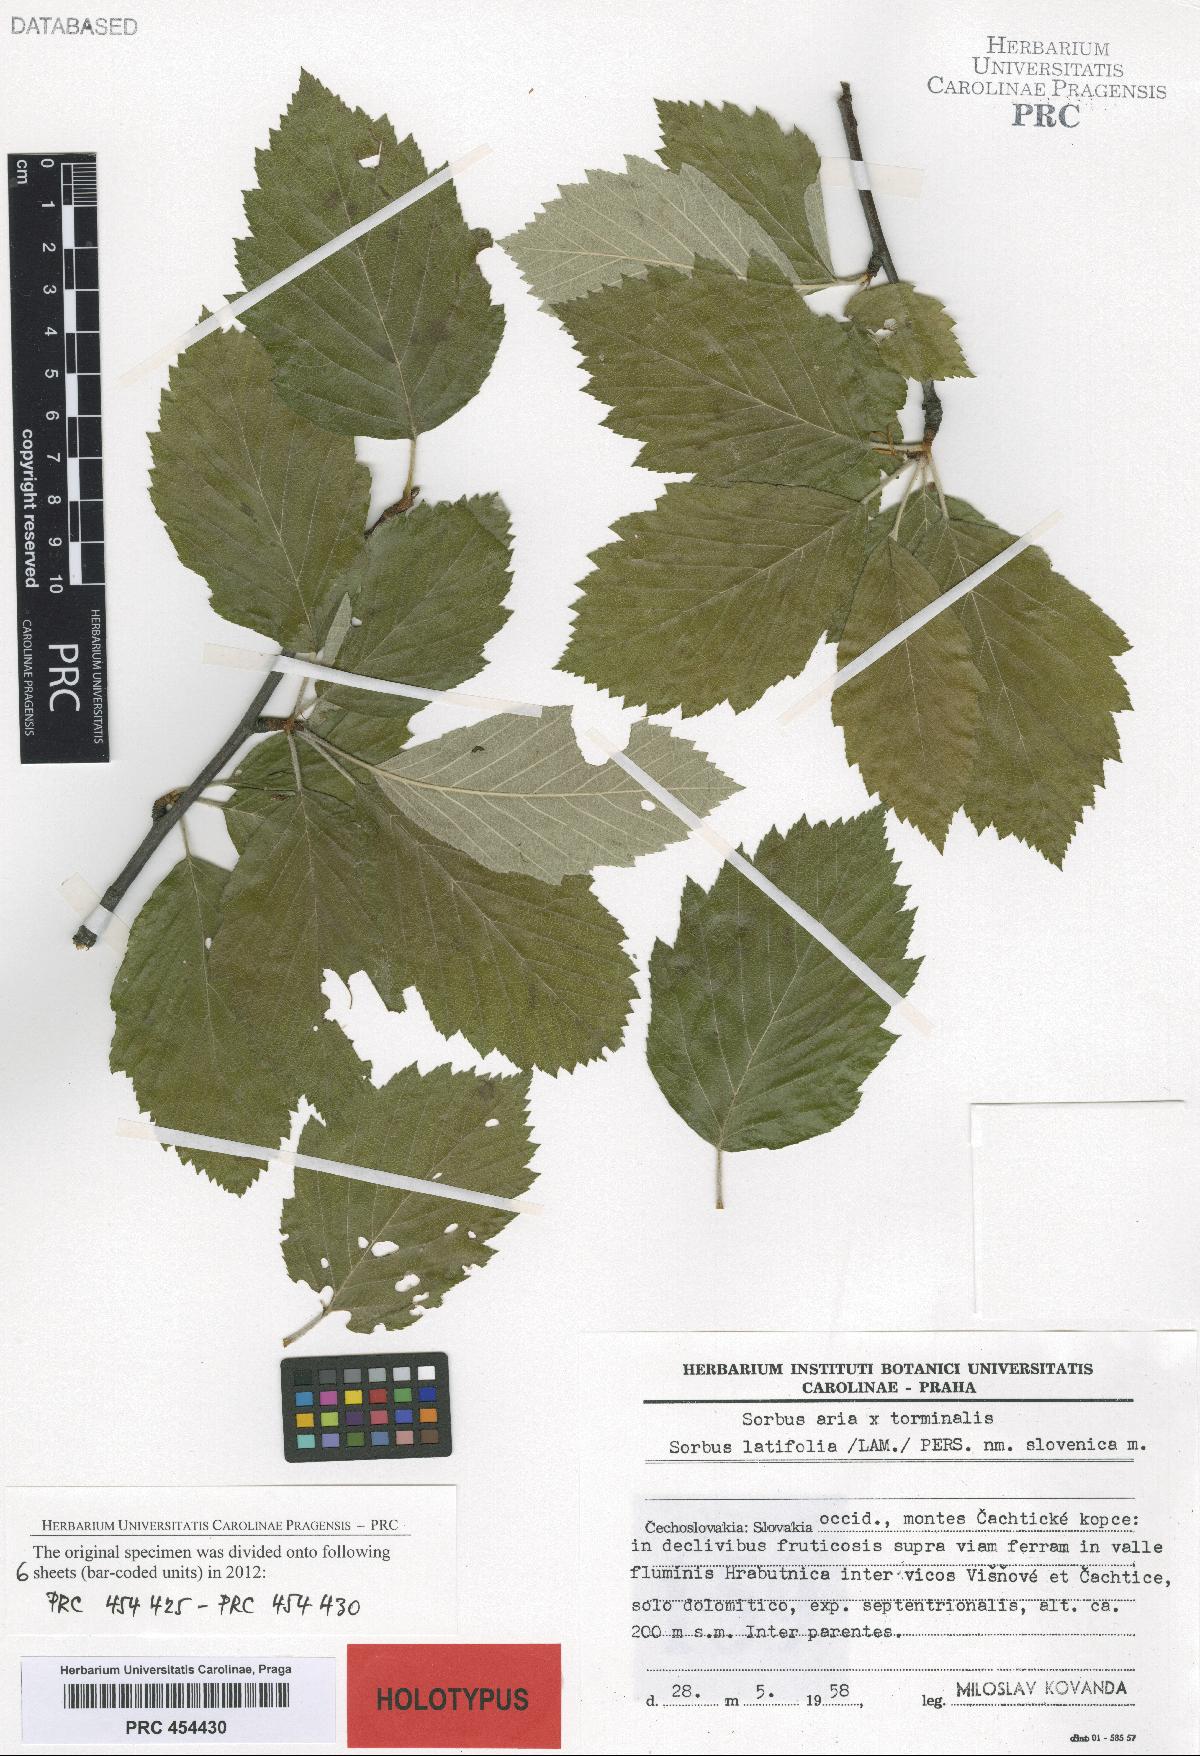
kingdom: Plantae
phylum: Tracheophyta
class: Magnoliopsida
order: Rosales
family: Rosaceae
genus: Karpatiosorbus
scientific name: Karpatiosorbus slovenica
